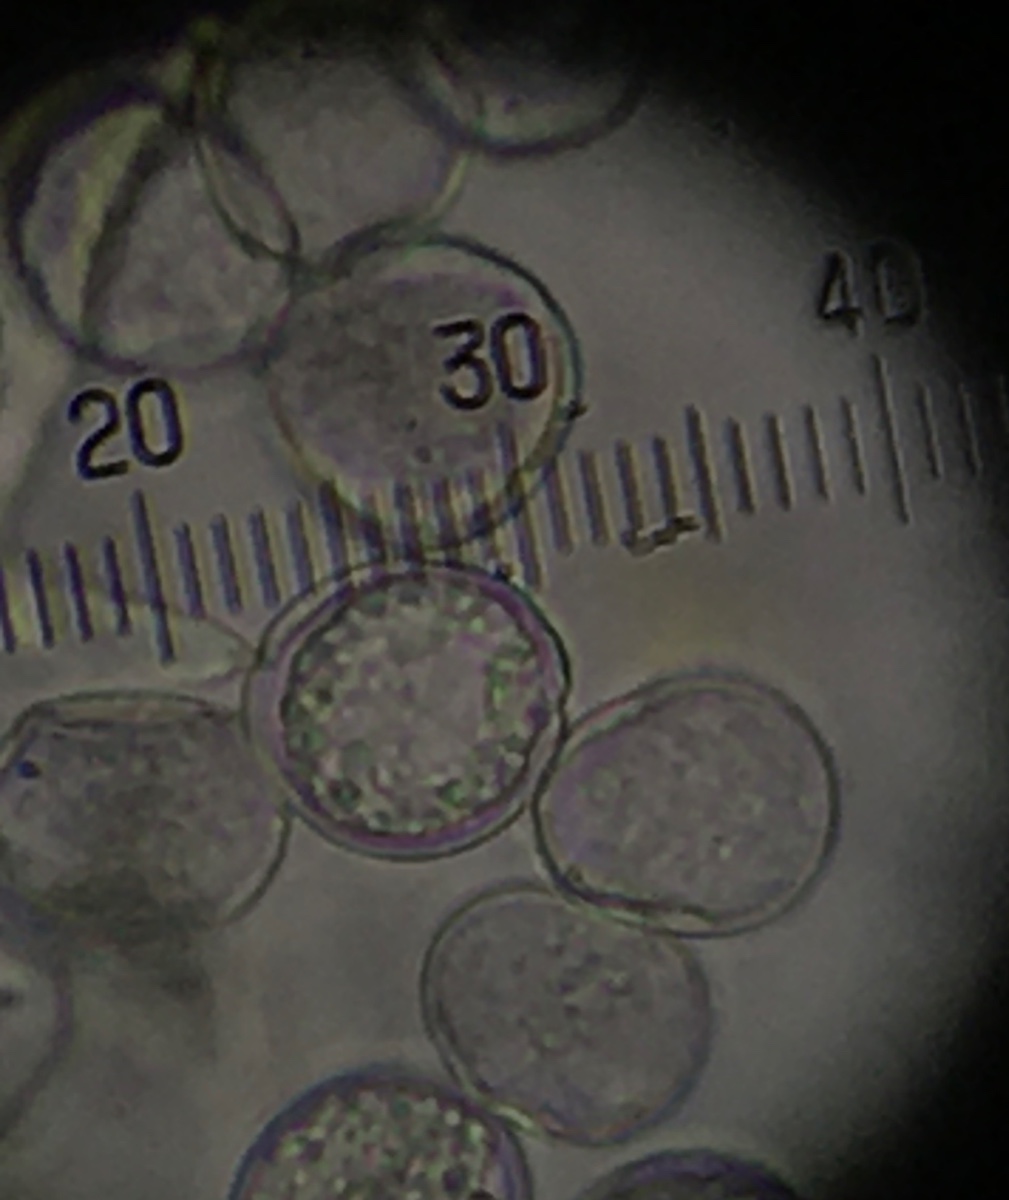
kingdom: Chromista
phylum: Oomycota
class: Peronosporea
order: Albuginales
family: Albuginaceae
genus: Albugo
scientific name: Albugo candida
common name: Crucifer white blister
